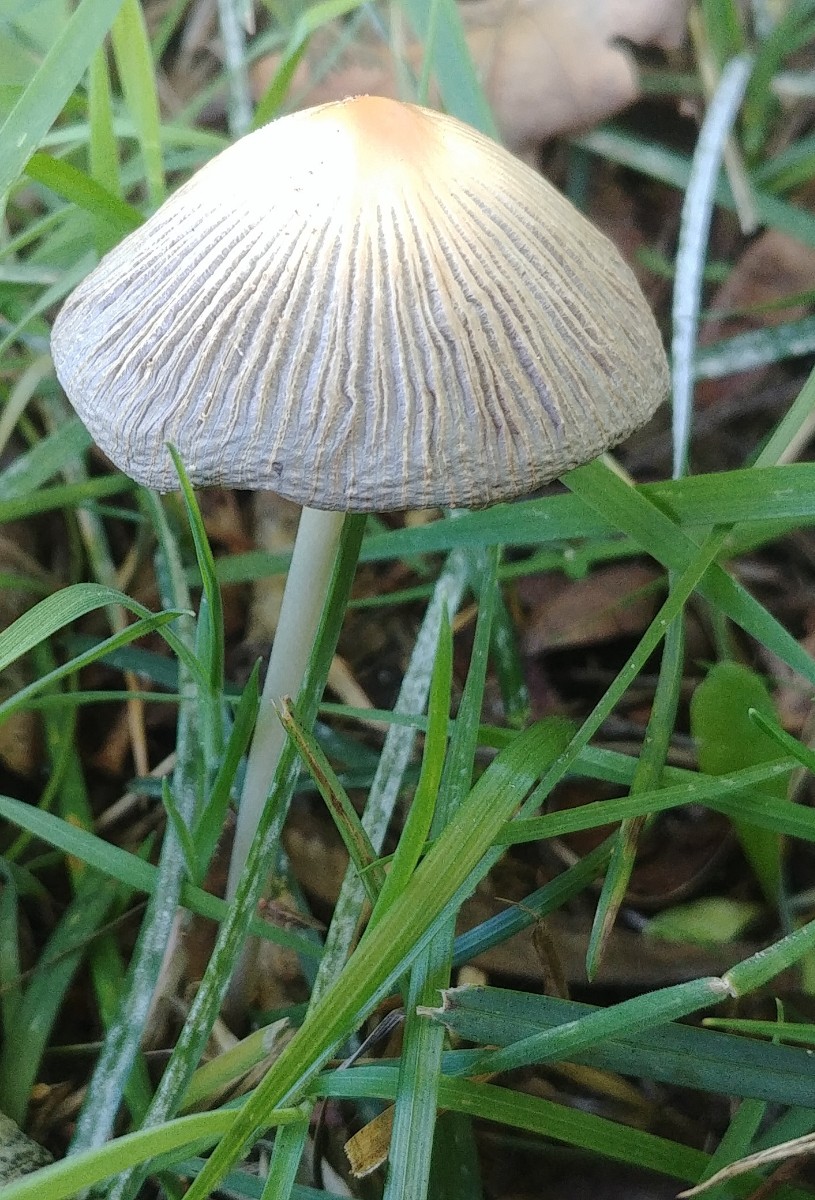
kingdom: Fungi
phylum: Basidiomycota
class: Agaricomycetes
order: Agaricales
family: Psathyrellaceae
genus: Parasola
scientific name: Parasola
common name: hjulhat
